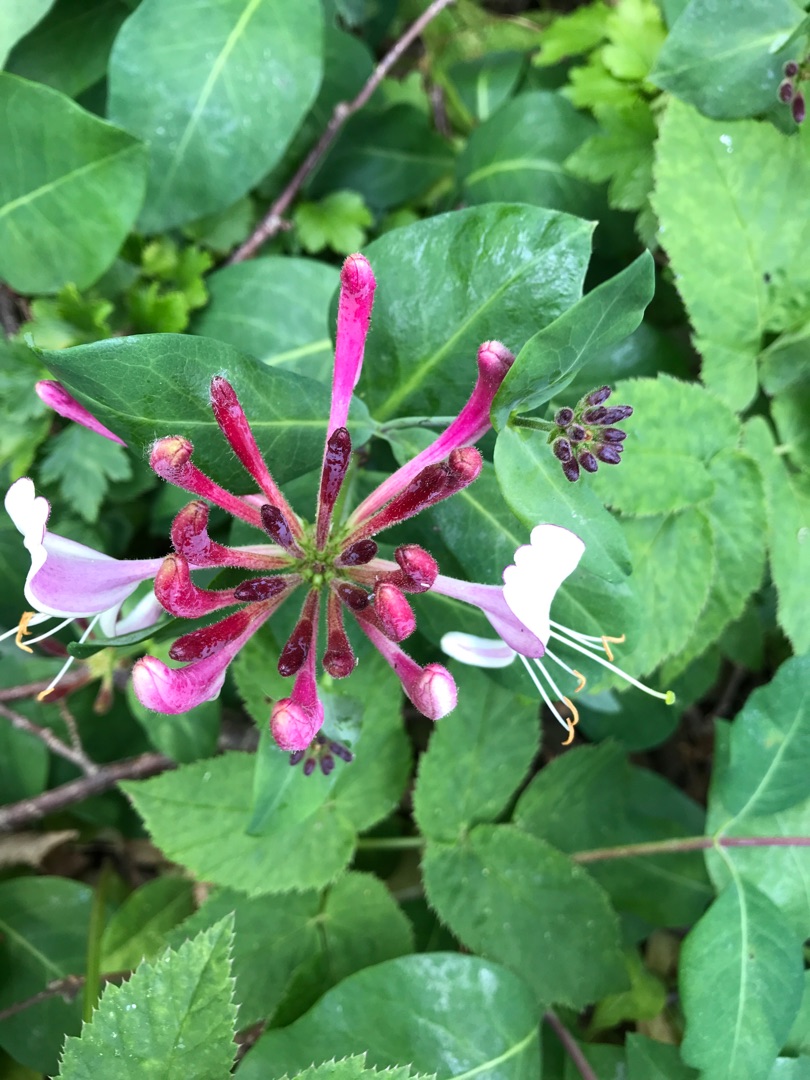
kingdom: Plantae
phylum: Tracheophyta
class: Magnoliopsida
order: Dipsacales
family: Caprifoliaceae
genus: Lonicera
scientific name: Lonicera periclymenum
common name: Almindelig gedeblad
